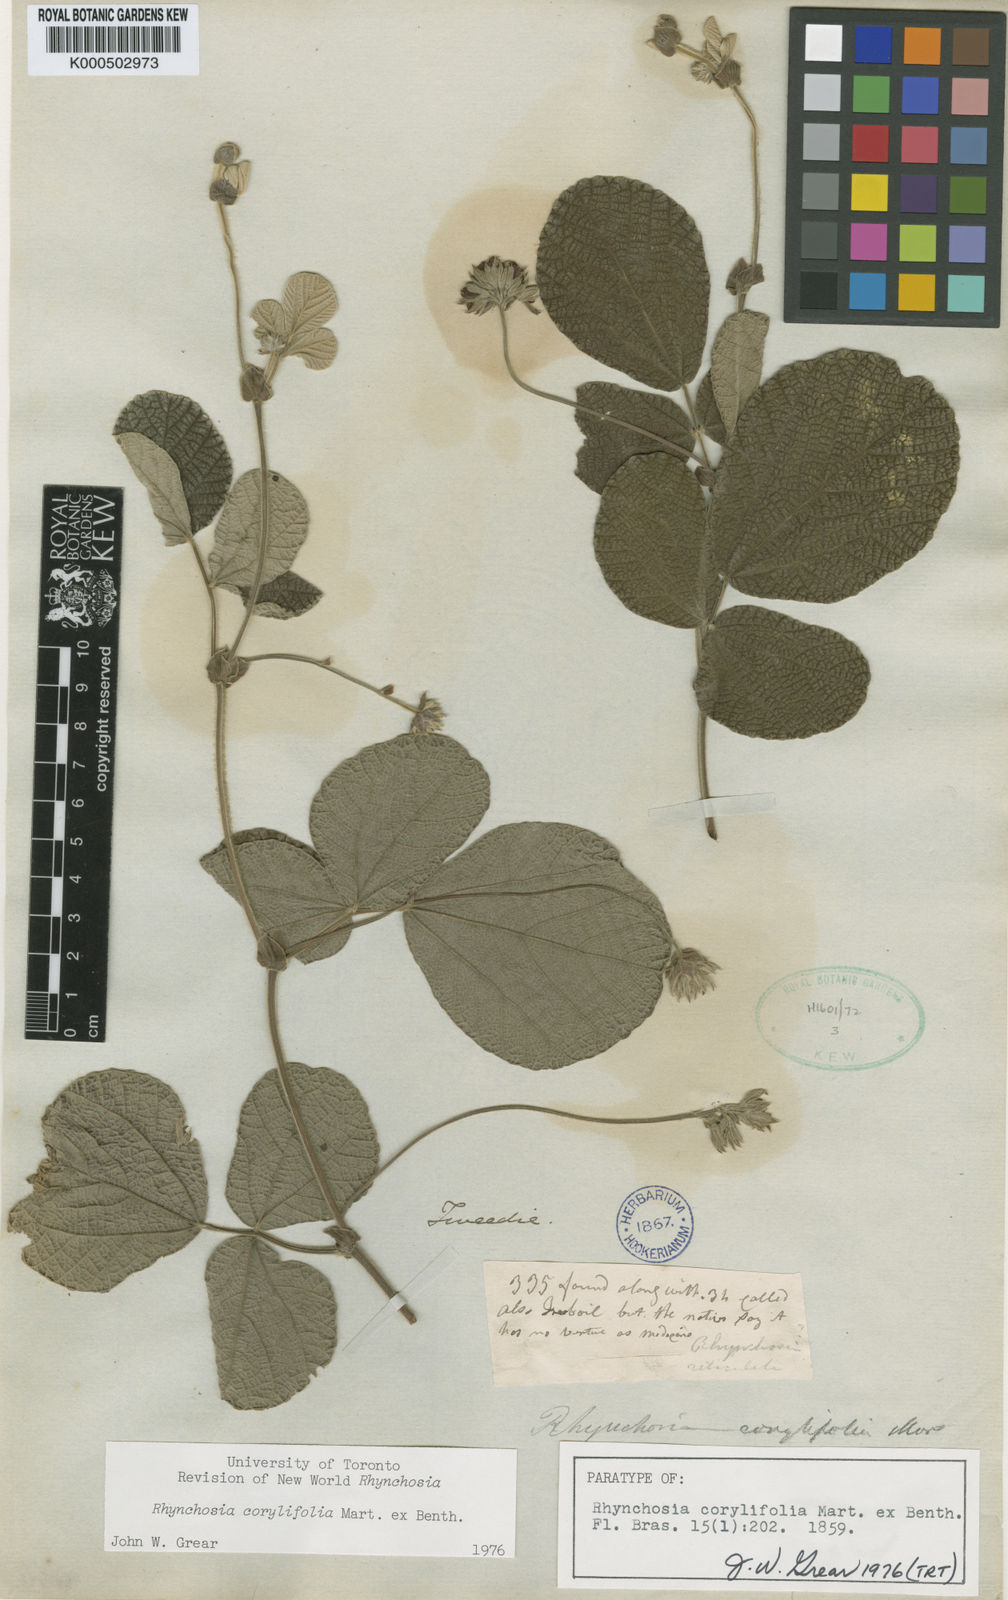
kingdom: Plantae
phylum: Tracheophyta
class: Magnoliopsida
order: Fabales
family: Fabaceae
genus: Rhynchosia
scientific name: Rhynchosia corylifolia
